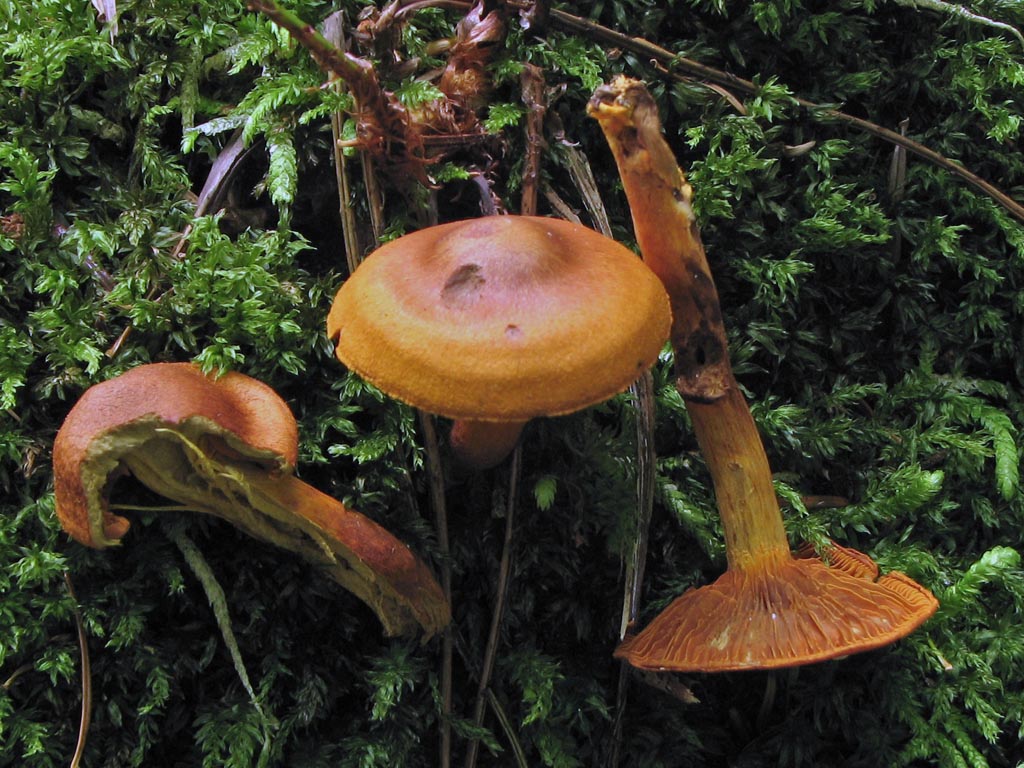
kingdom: Fungi
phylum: Basidiomycota
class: Agaricomycetes
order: Agaricales
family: Cortinariaceae
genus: Cortinarius
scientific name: Cortinarius malicorius
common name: grønkødet slørhat
